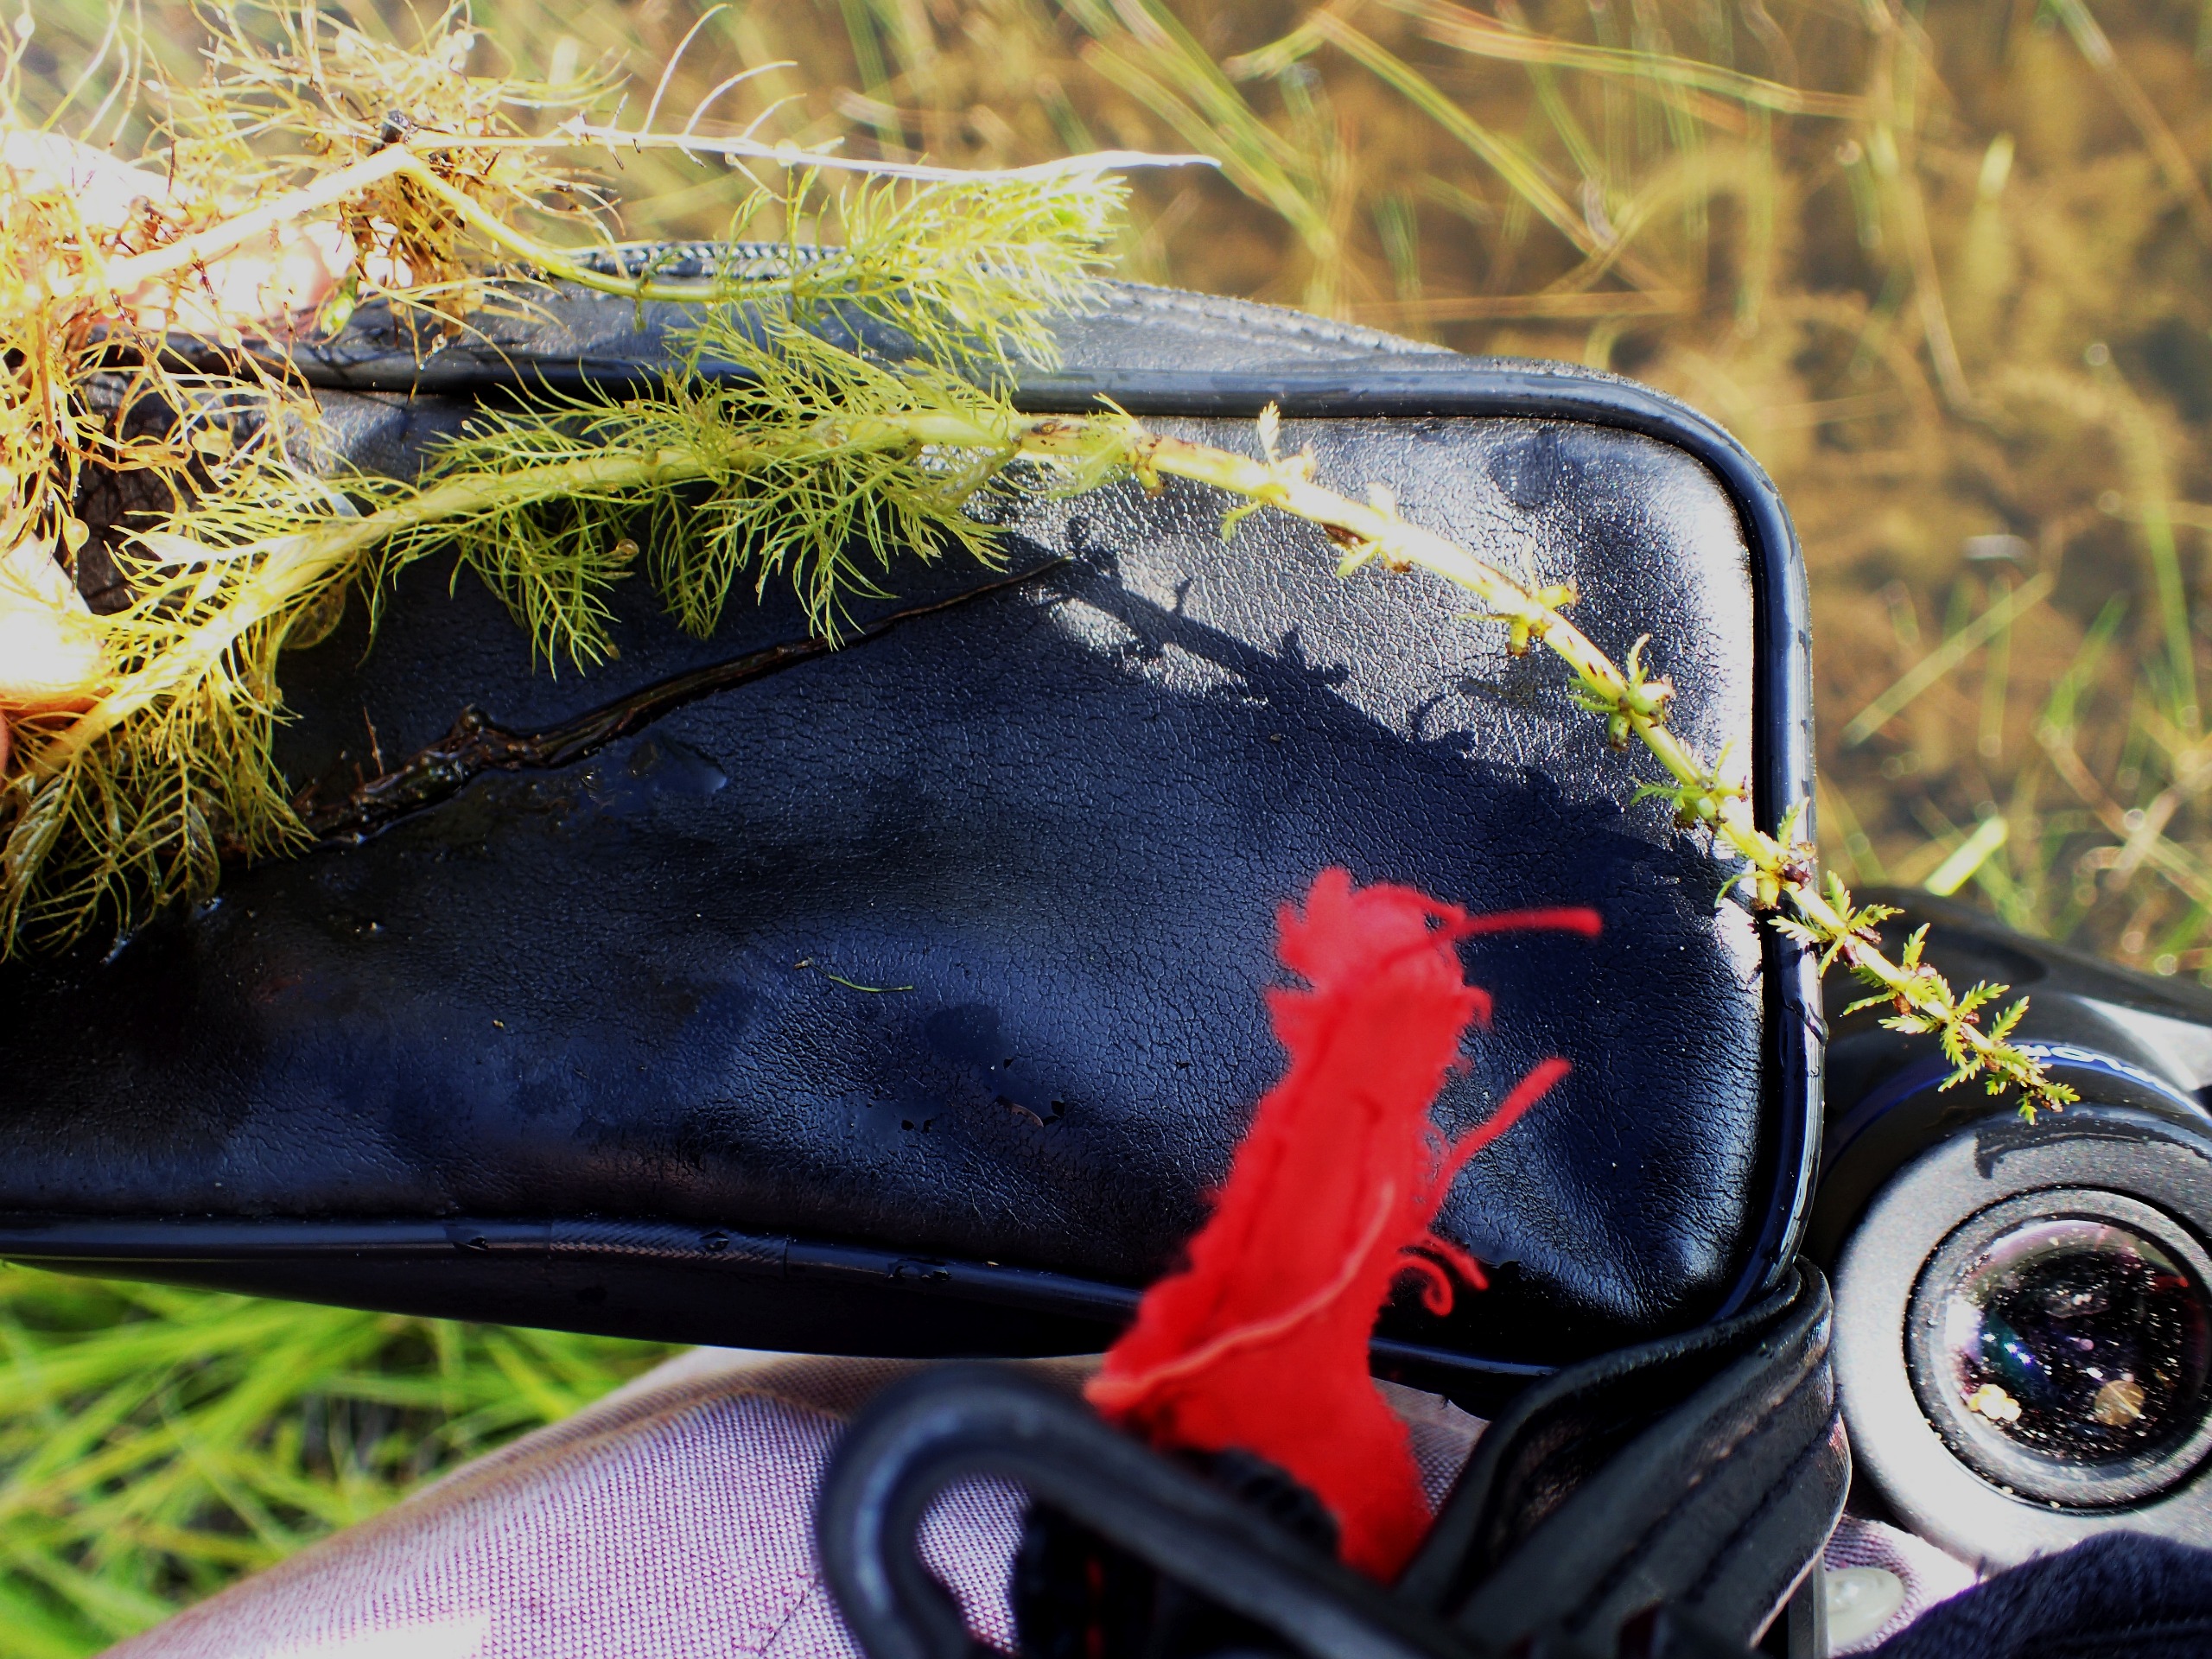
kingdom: Plantae
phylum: Tracheophyta
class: Magnoliopsida
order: Saxifragales
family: Haloragaceae
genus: Myriophyllum
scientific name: Myriophyllum verticillatum
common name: Krans-tusindblad
